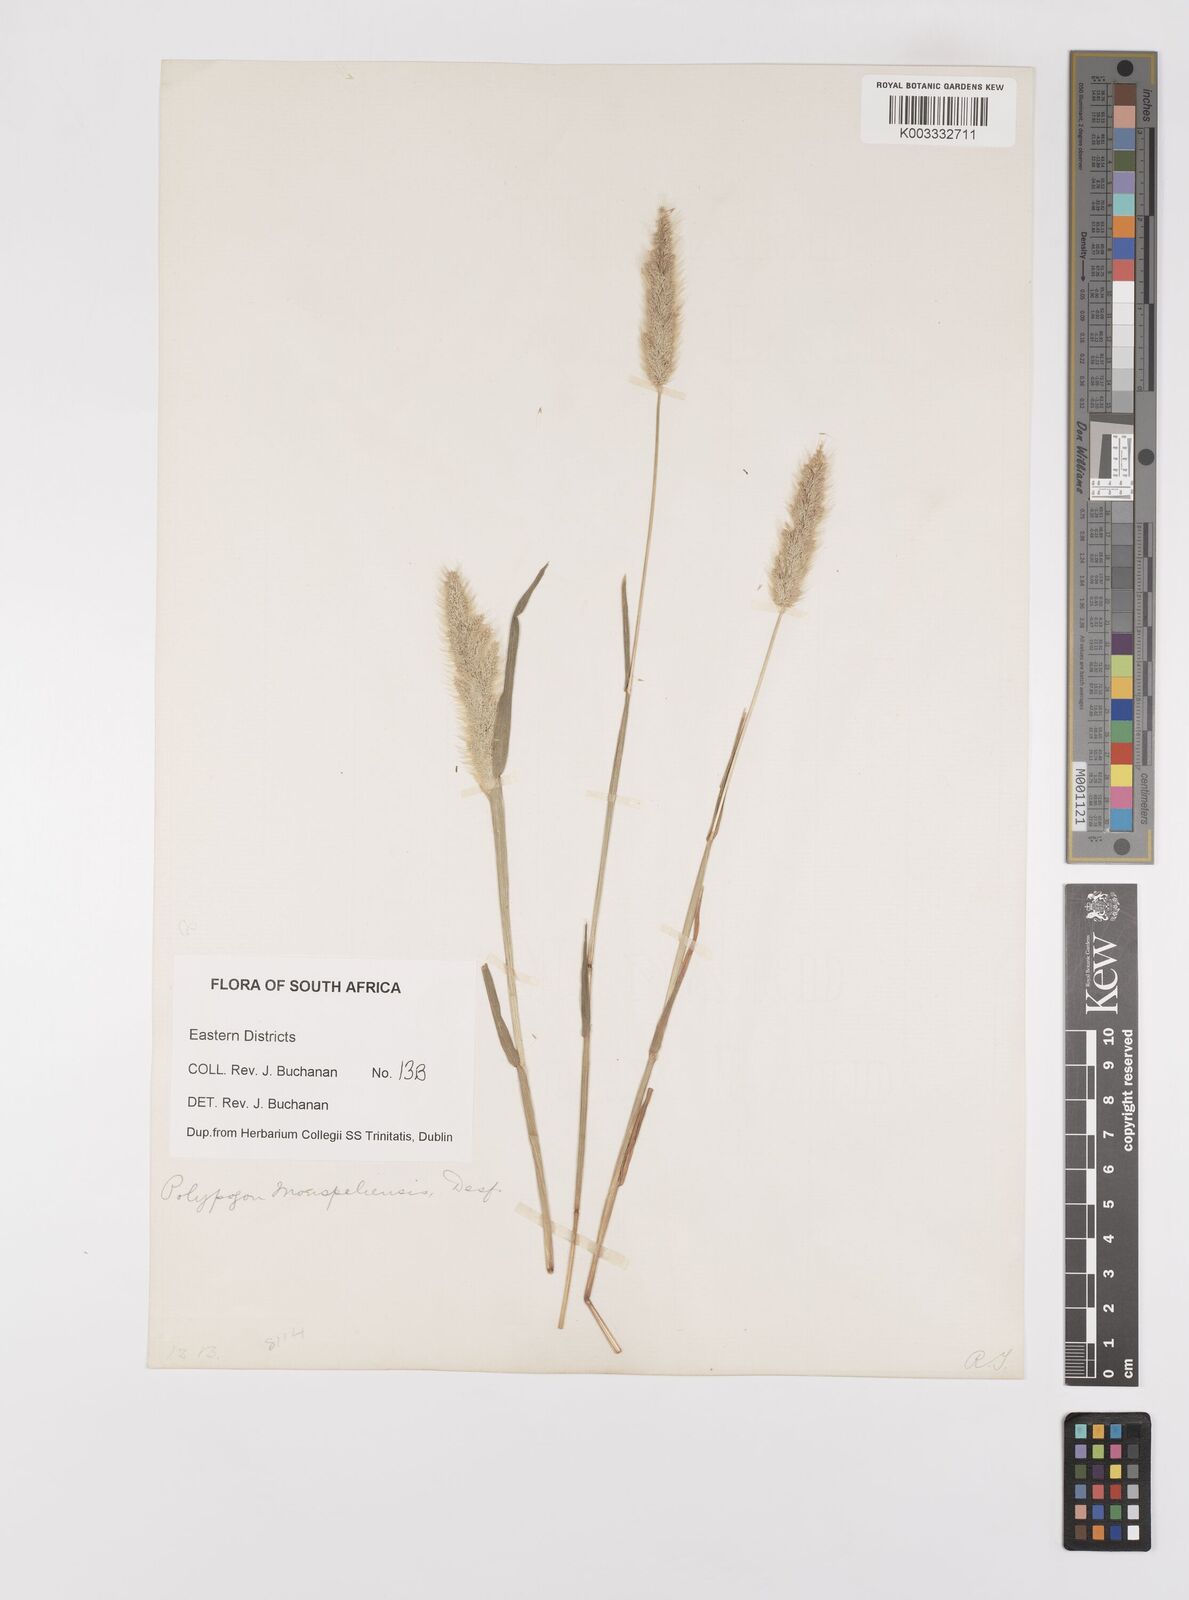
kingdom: Plantae
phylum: Tracheophyta
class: Liliopsida
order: Poales
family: Poaceae
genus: Polypogon
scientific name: Polypogon monspeliensis
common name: Annual rabbitsfoot grass
